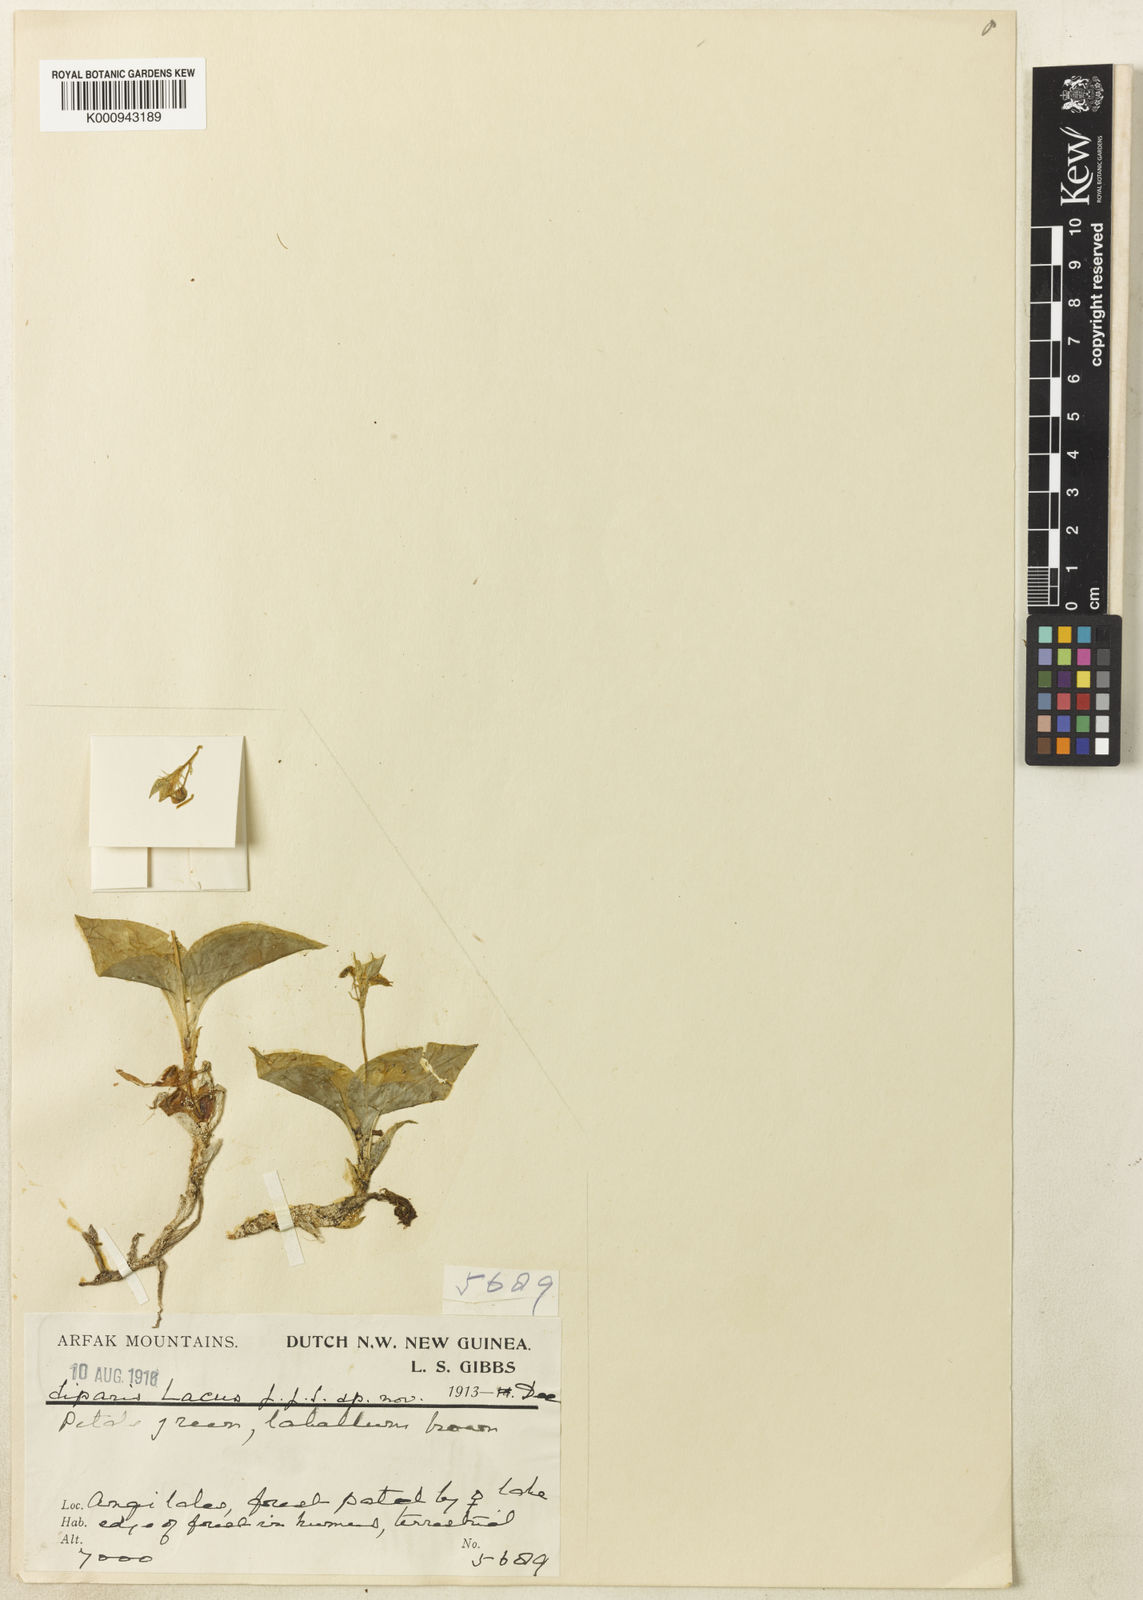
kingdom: Plantae
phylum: Tracheophyta
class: Liliopsida
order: Asparagales
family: Orchidaceae
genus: Liparis
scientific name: Liparis lacus
